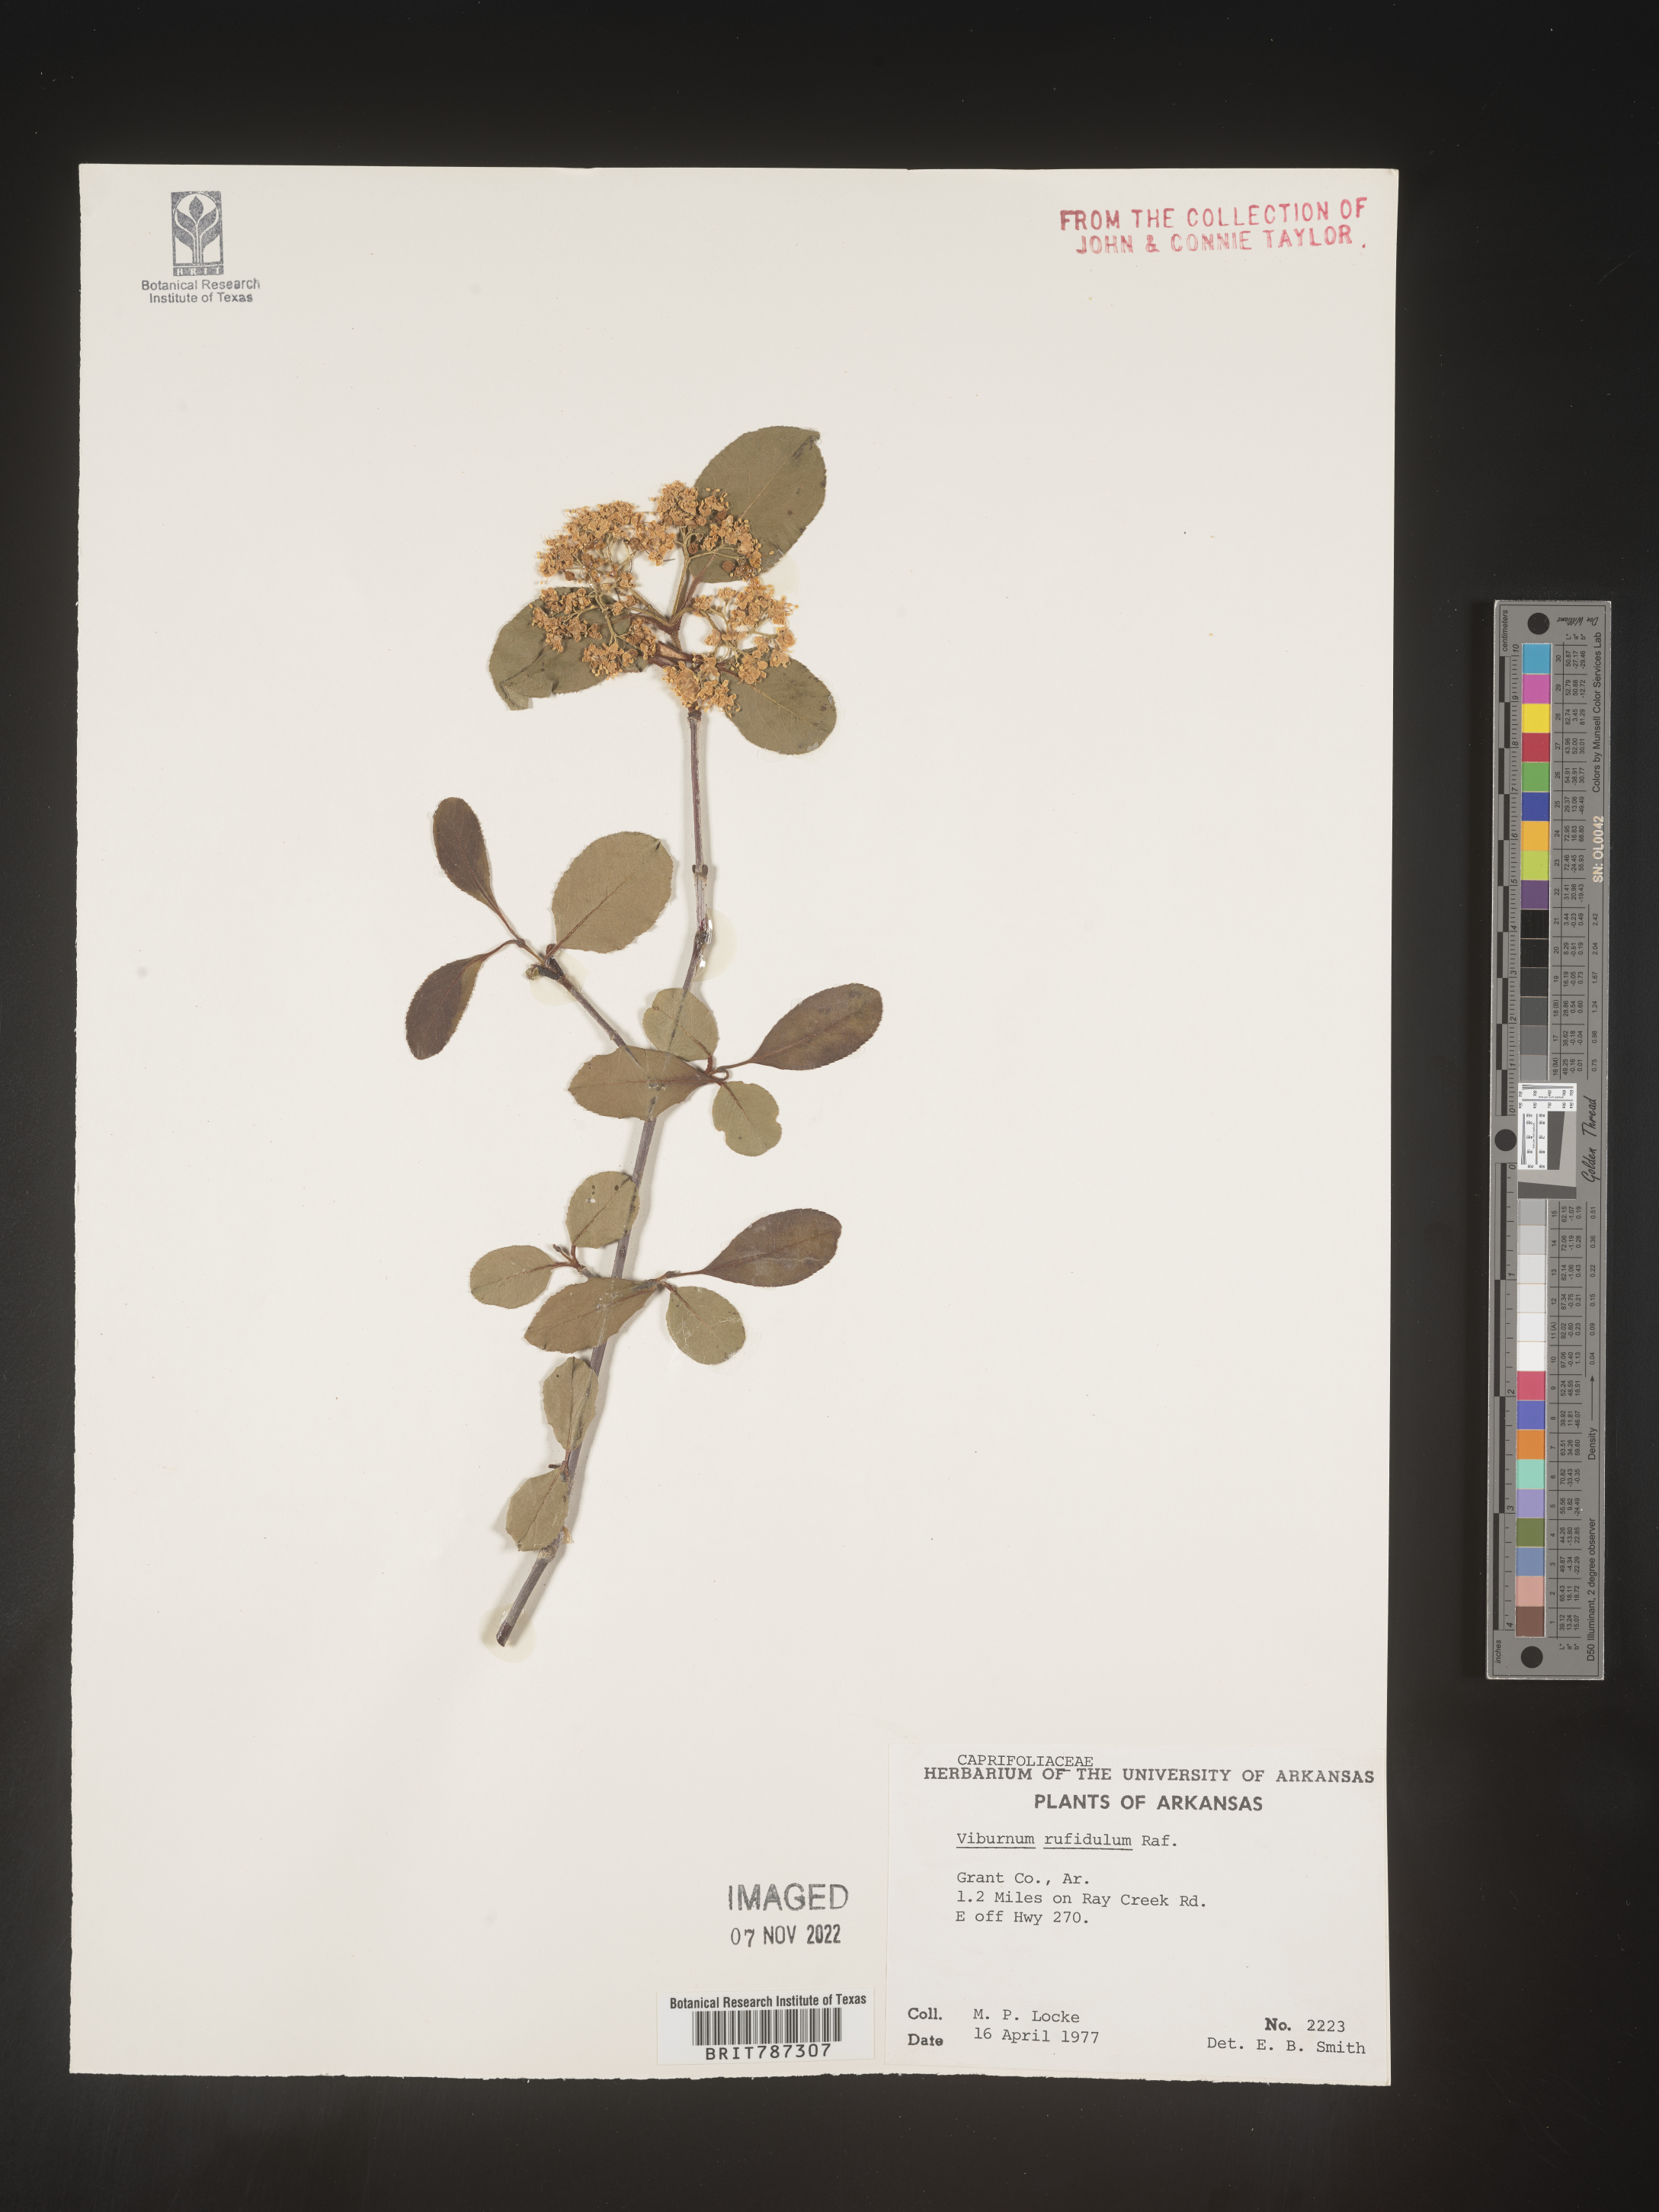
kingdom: Plantae
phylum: Tracheophyta
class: Magnoliopsida
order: Dipsacales
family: Viburnaceae
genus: Viburnum
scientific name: Viburnum rufidulum
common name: Blue haw
